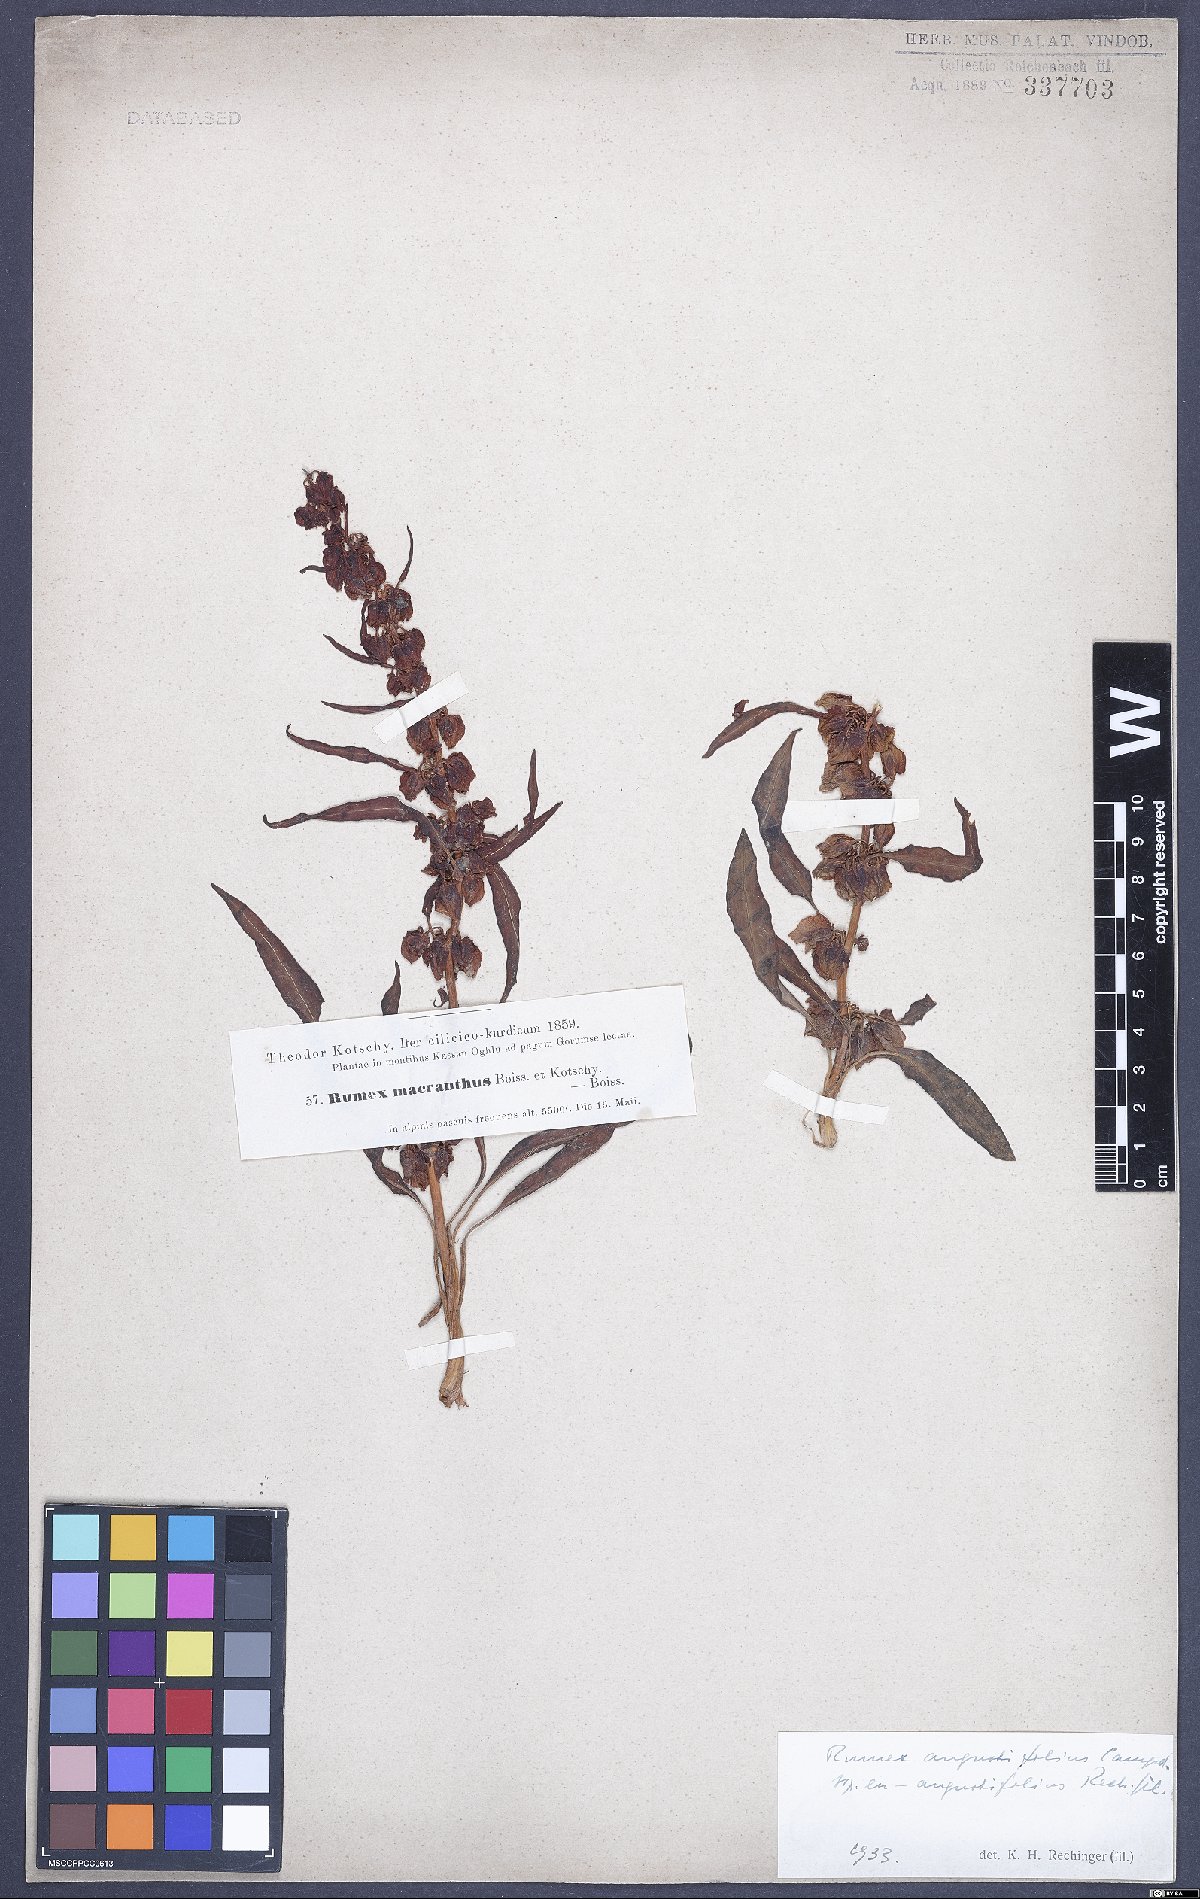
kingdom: Plantae
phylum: Tracheophyta
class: Magnoliopsida
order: Caryophyllales
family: Polygonaceae
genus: Rumex
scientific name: Rumex angustifolius
